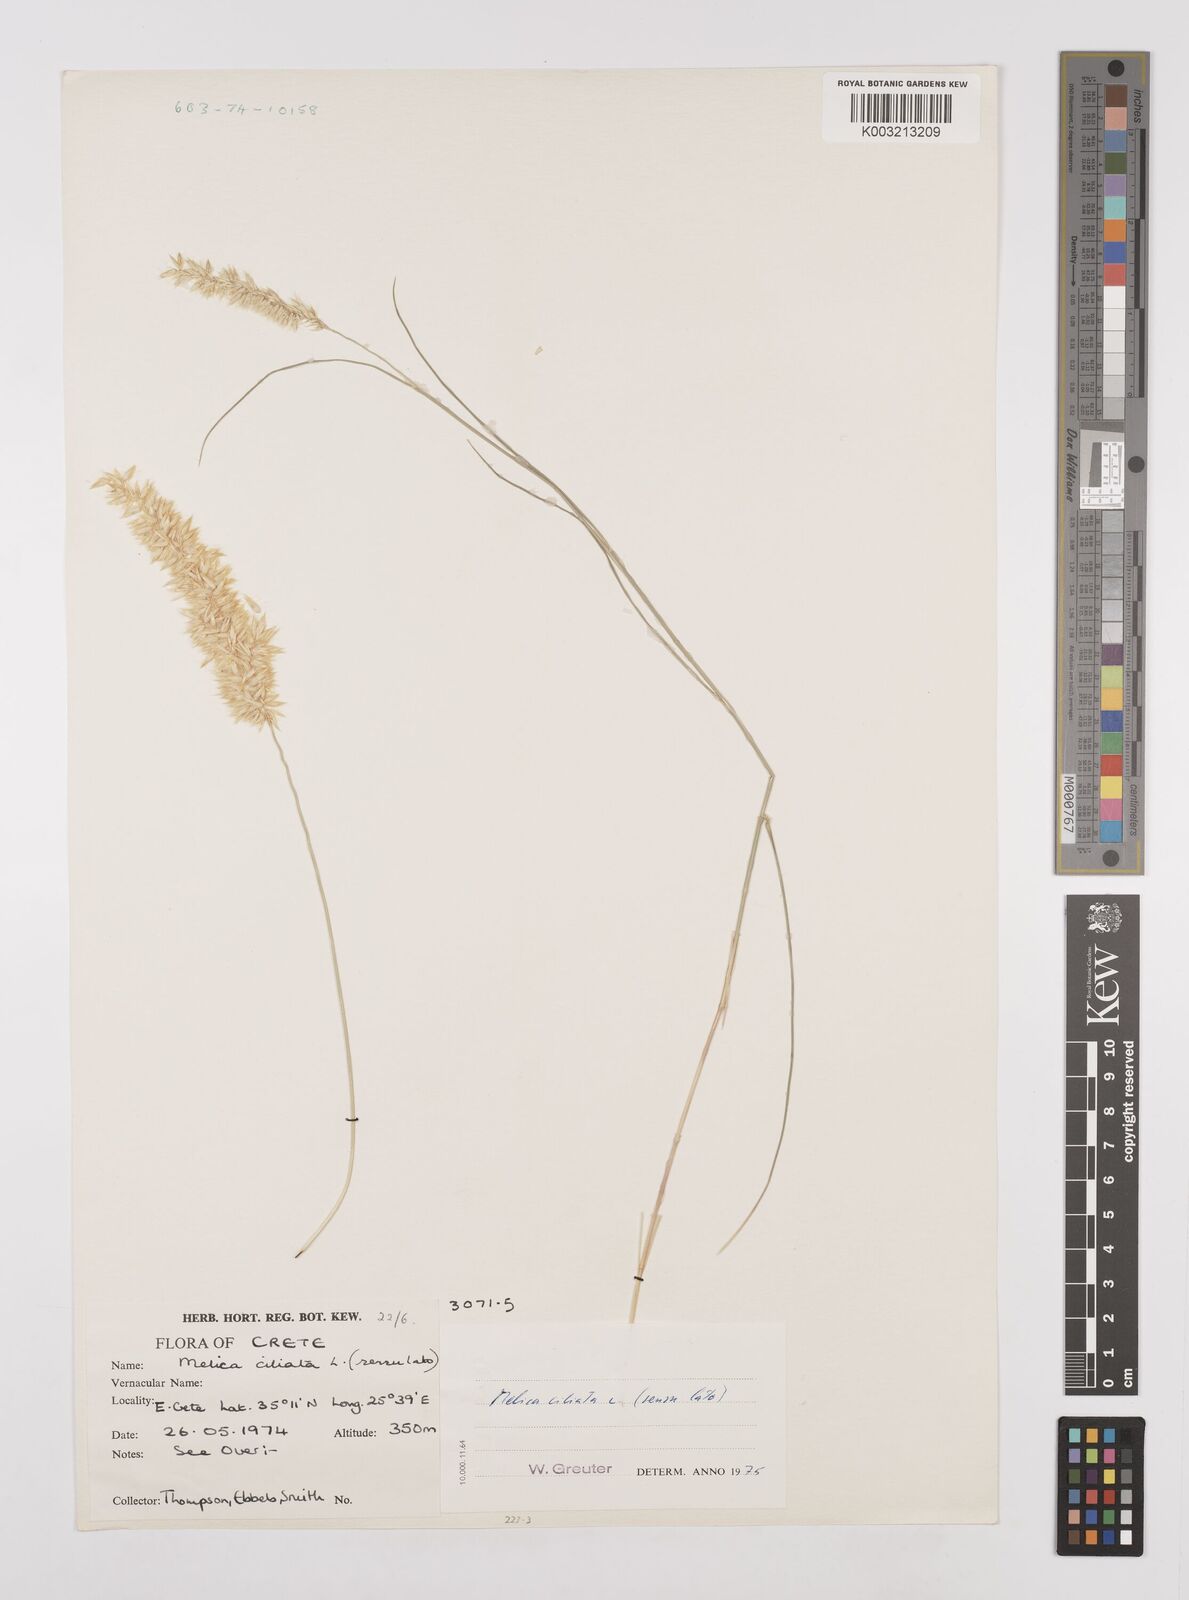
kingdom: Plantae
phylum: Tracheophyta
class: Liliopsida
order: Poales
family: Poaceae
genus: Melica
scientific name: Melica ciliata
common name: Hairy melicgrass
